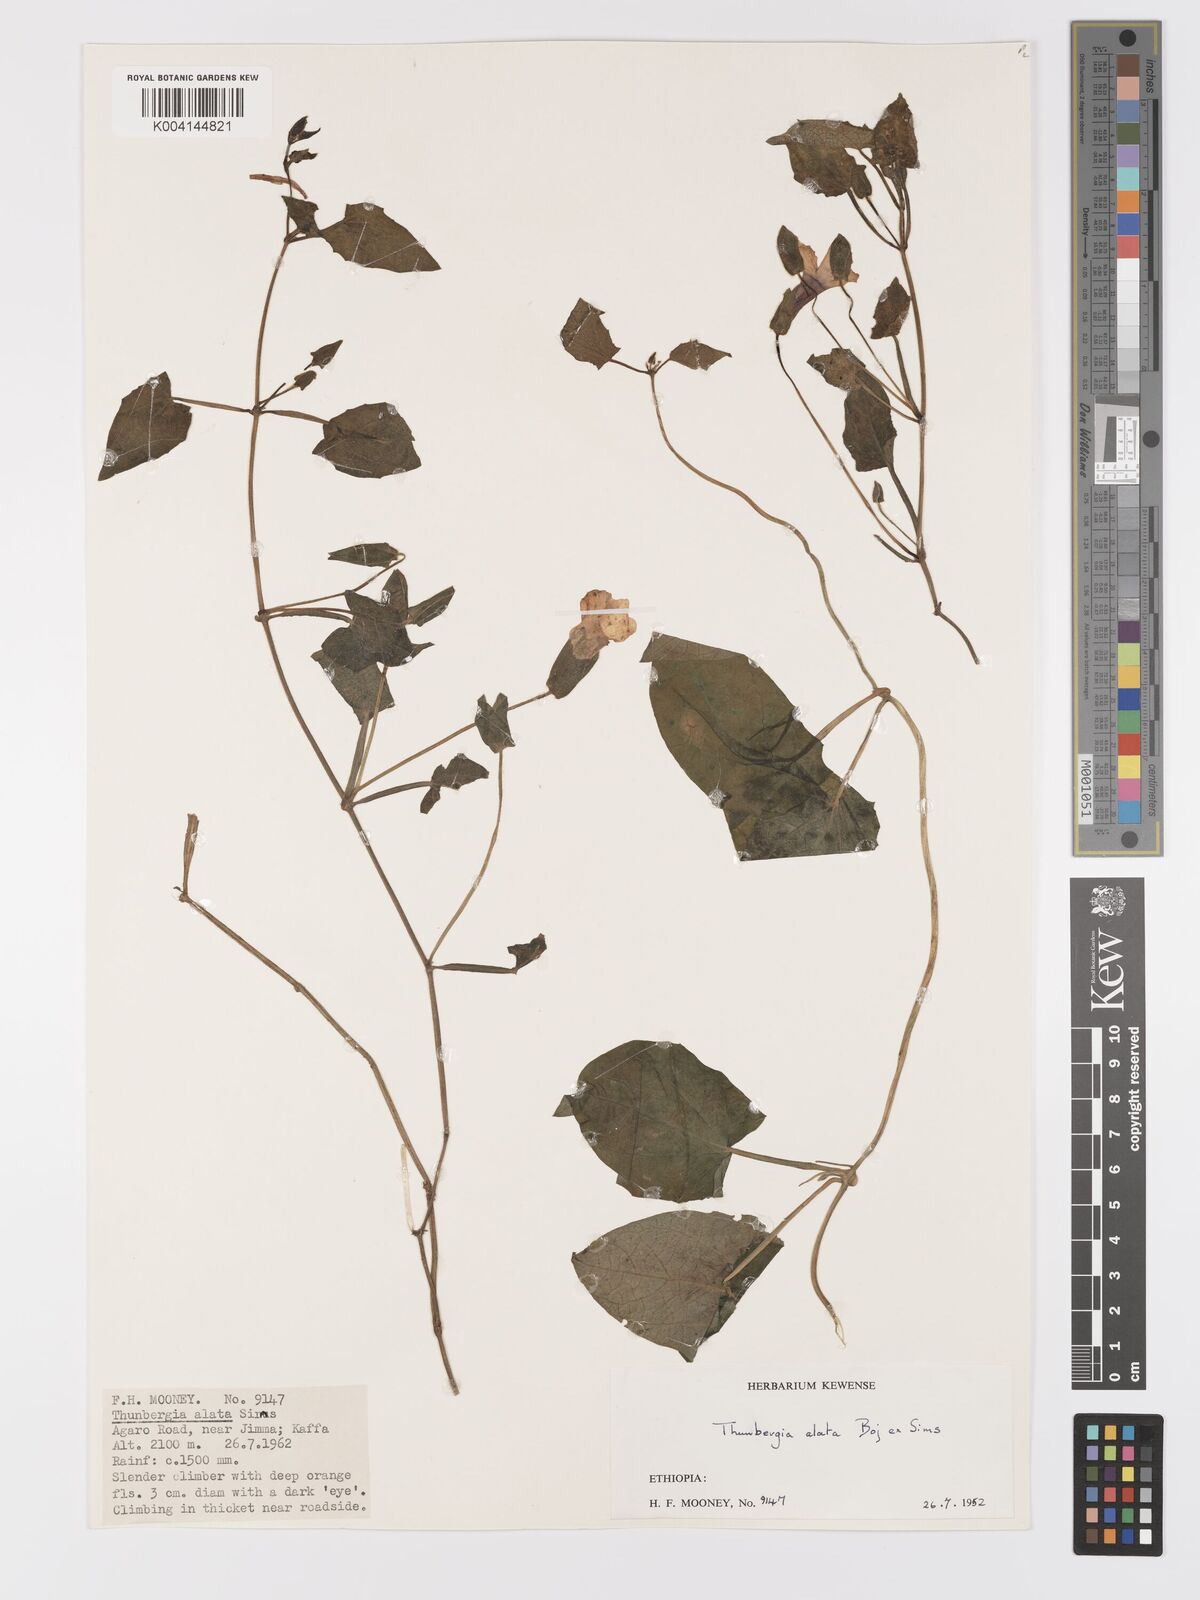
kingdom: Plantae
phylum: Tracheophyta
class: Magnoliopsida
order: Lamiales
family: Acanthaceae
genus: Thunbergia
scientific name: Thunbergia alata
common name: Blackeyed susan vine
